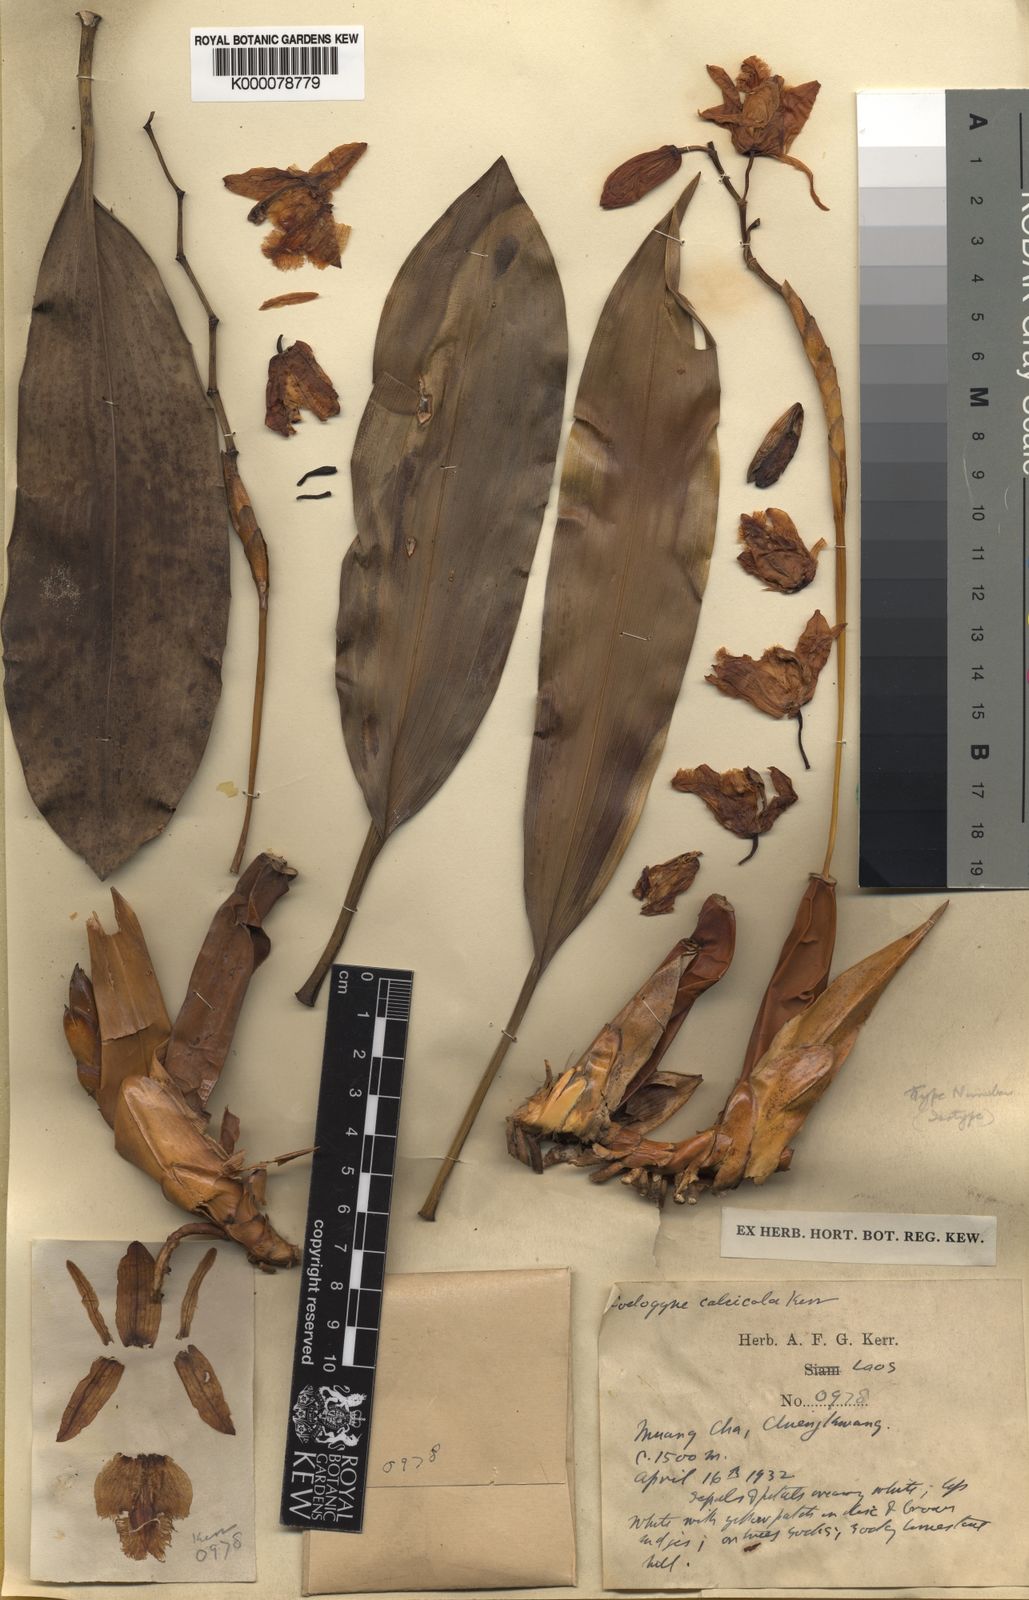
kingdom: Plantae
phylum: Tracheophyta
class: Liliopsida
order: Asparagales
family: Orchidaceae
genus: Coelogyne
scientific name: Coelogyne calcicola
